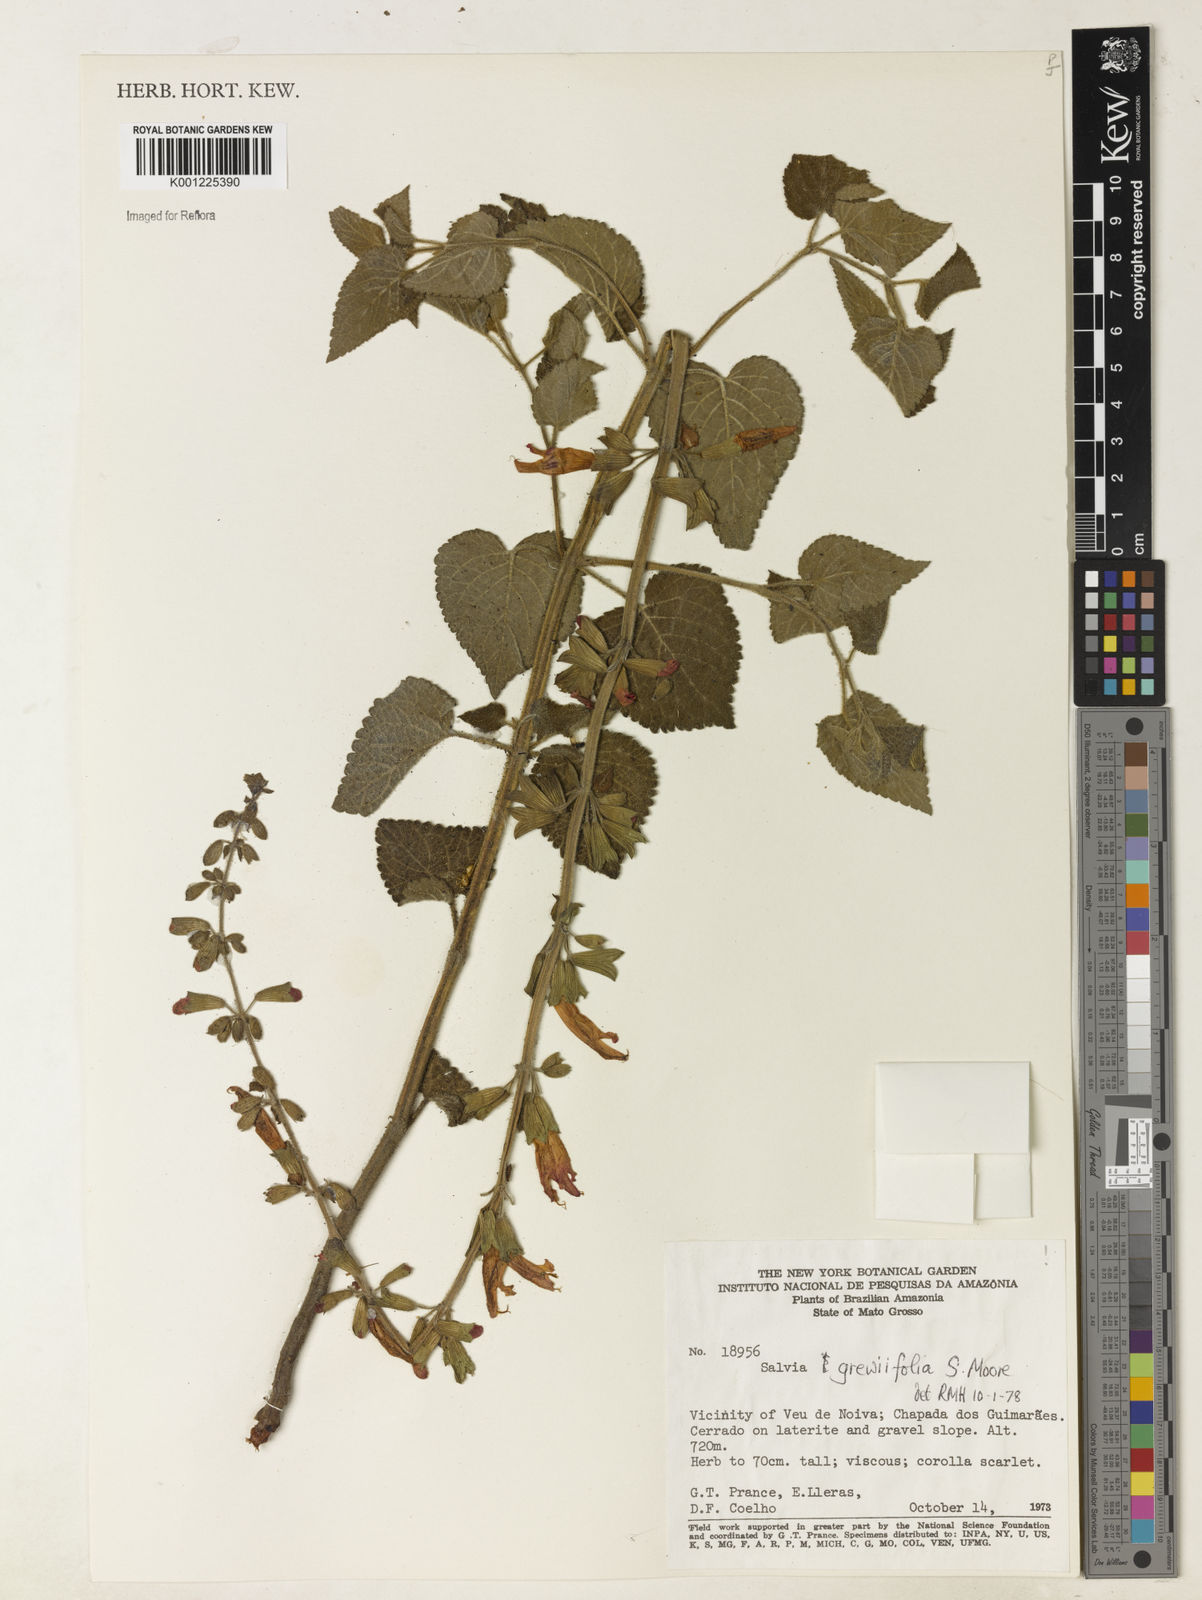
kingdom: Plantae
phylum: Tracheophyta
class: Magnoliopsida
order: Lamiales
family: Lamiaceae
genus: Salvia
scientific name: Salvia grewiifolia
